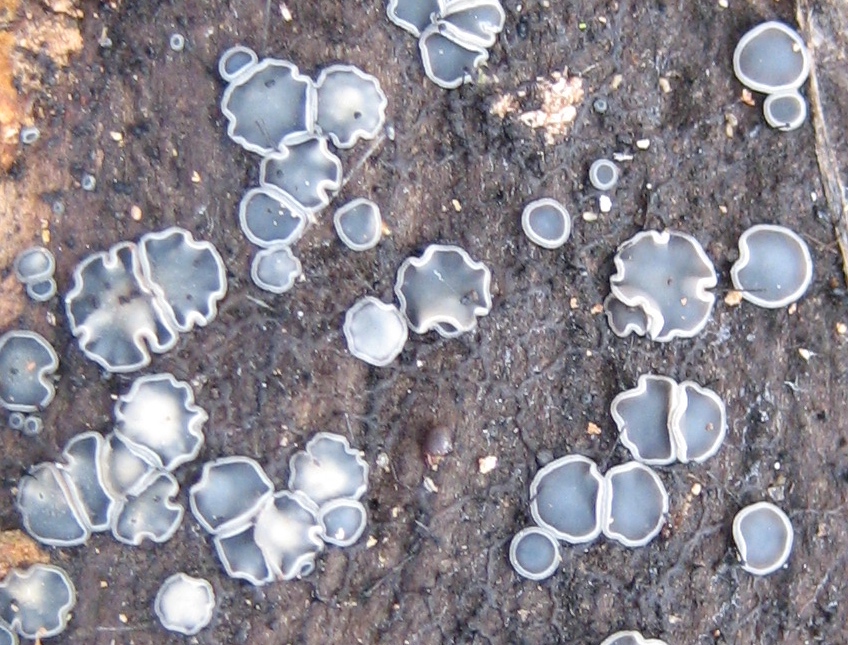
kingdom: Fungi
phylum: Ascomycota
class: Leotiomycetes
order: Helotiales
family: Mollisiaceae
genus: Mollisia
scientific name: Mollisia
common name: gråskive
